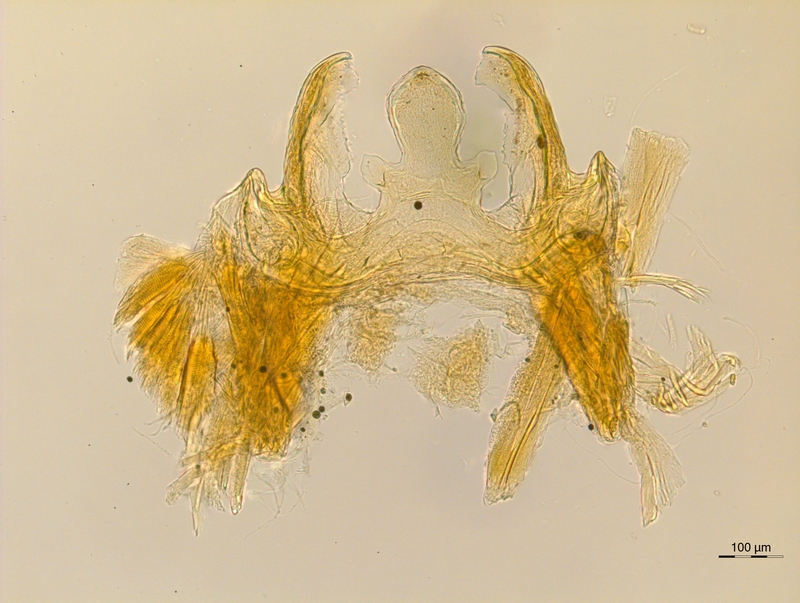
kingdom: Animalia
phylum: Arthropoda
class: Diplopoda
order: Chordeumatida
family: Anthogonidae
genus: Haasia
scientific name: Haasia troglodytes
